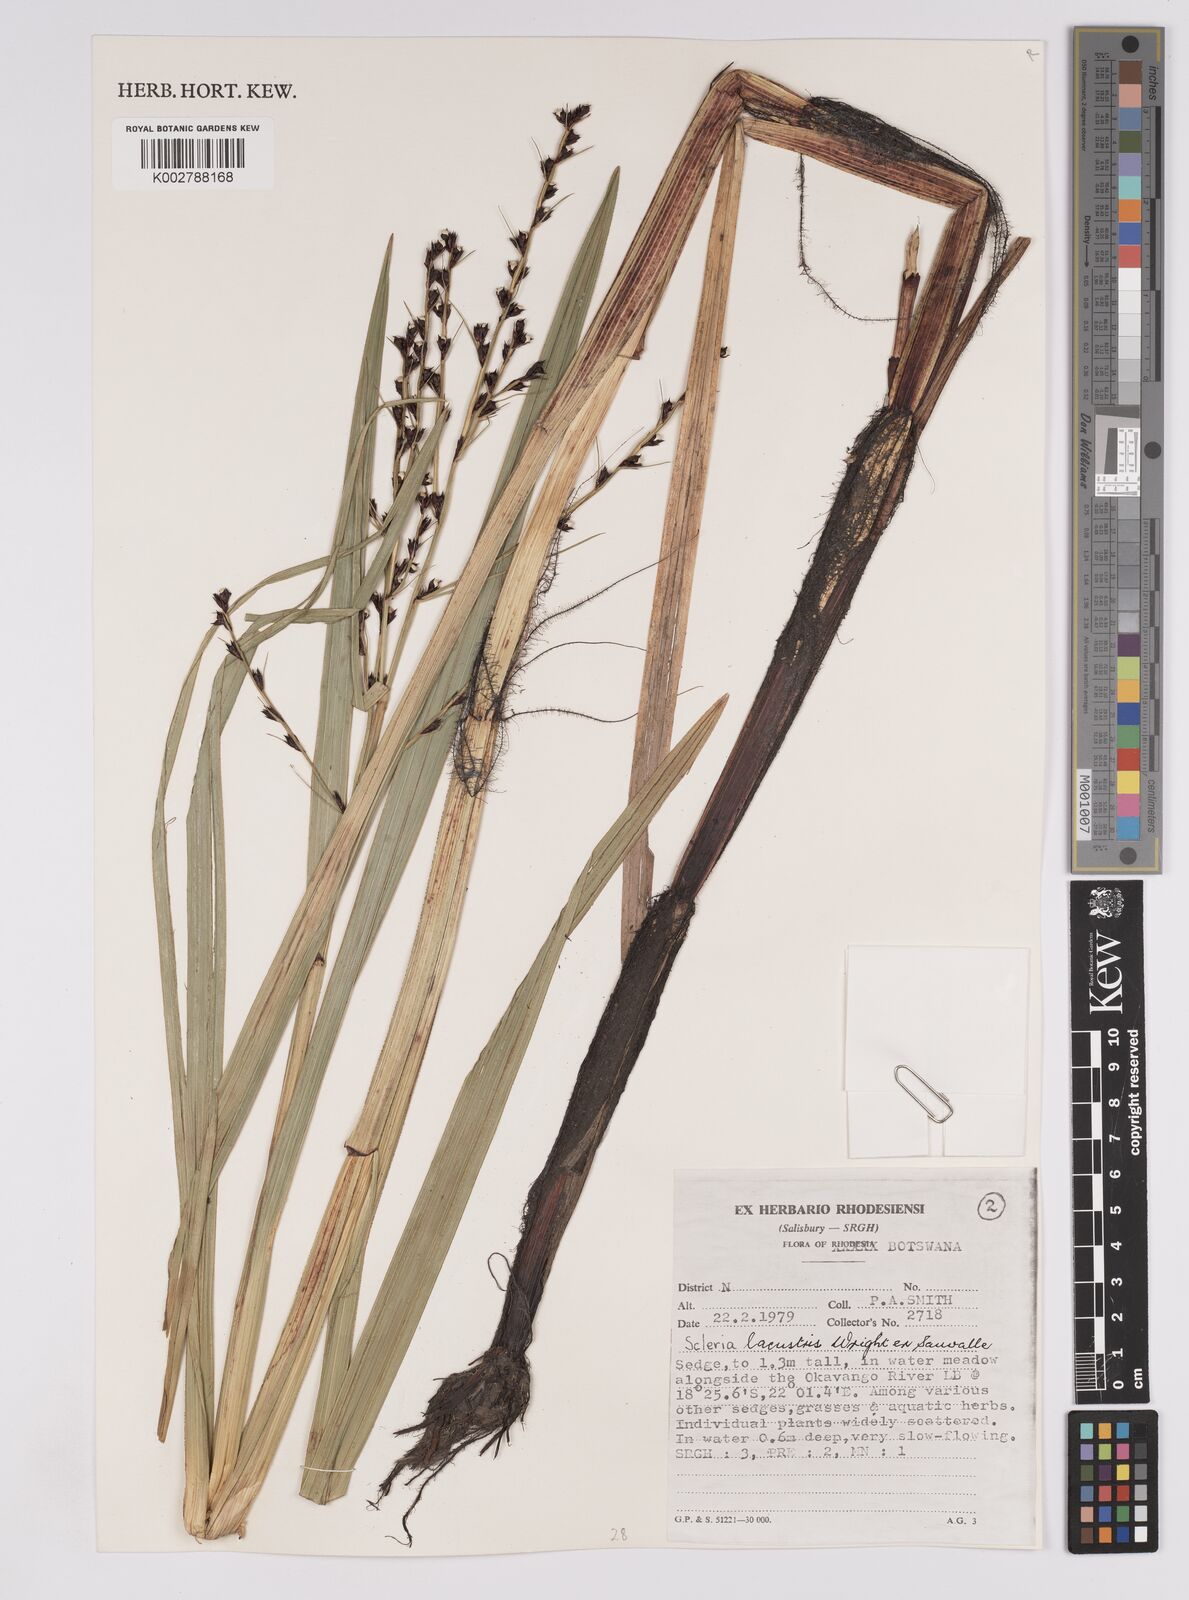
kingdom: Plantae
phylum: Tracheophyta
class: Liliopsida
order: Poales
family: Cyperaceae
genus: Scleria
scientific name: Scleria lacustris
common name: Lakeshore nutrush
